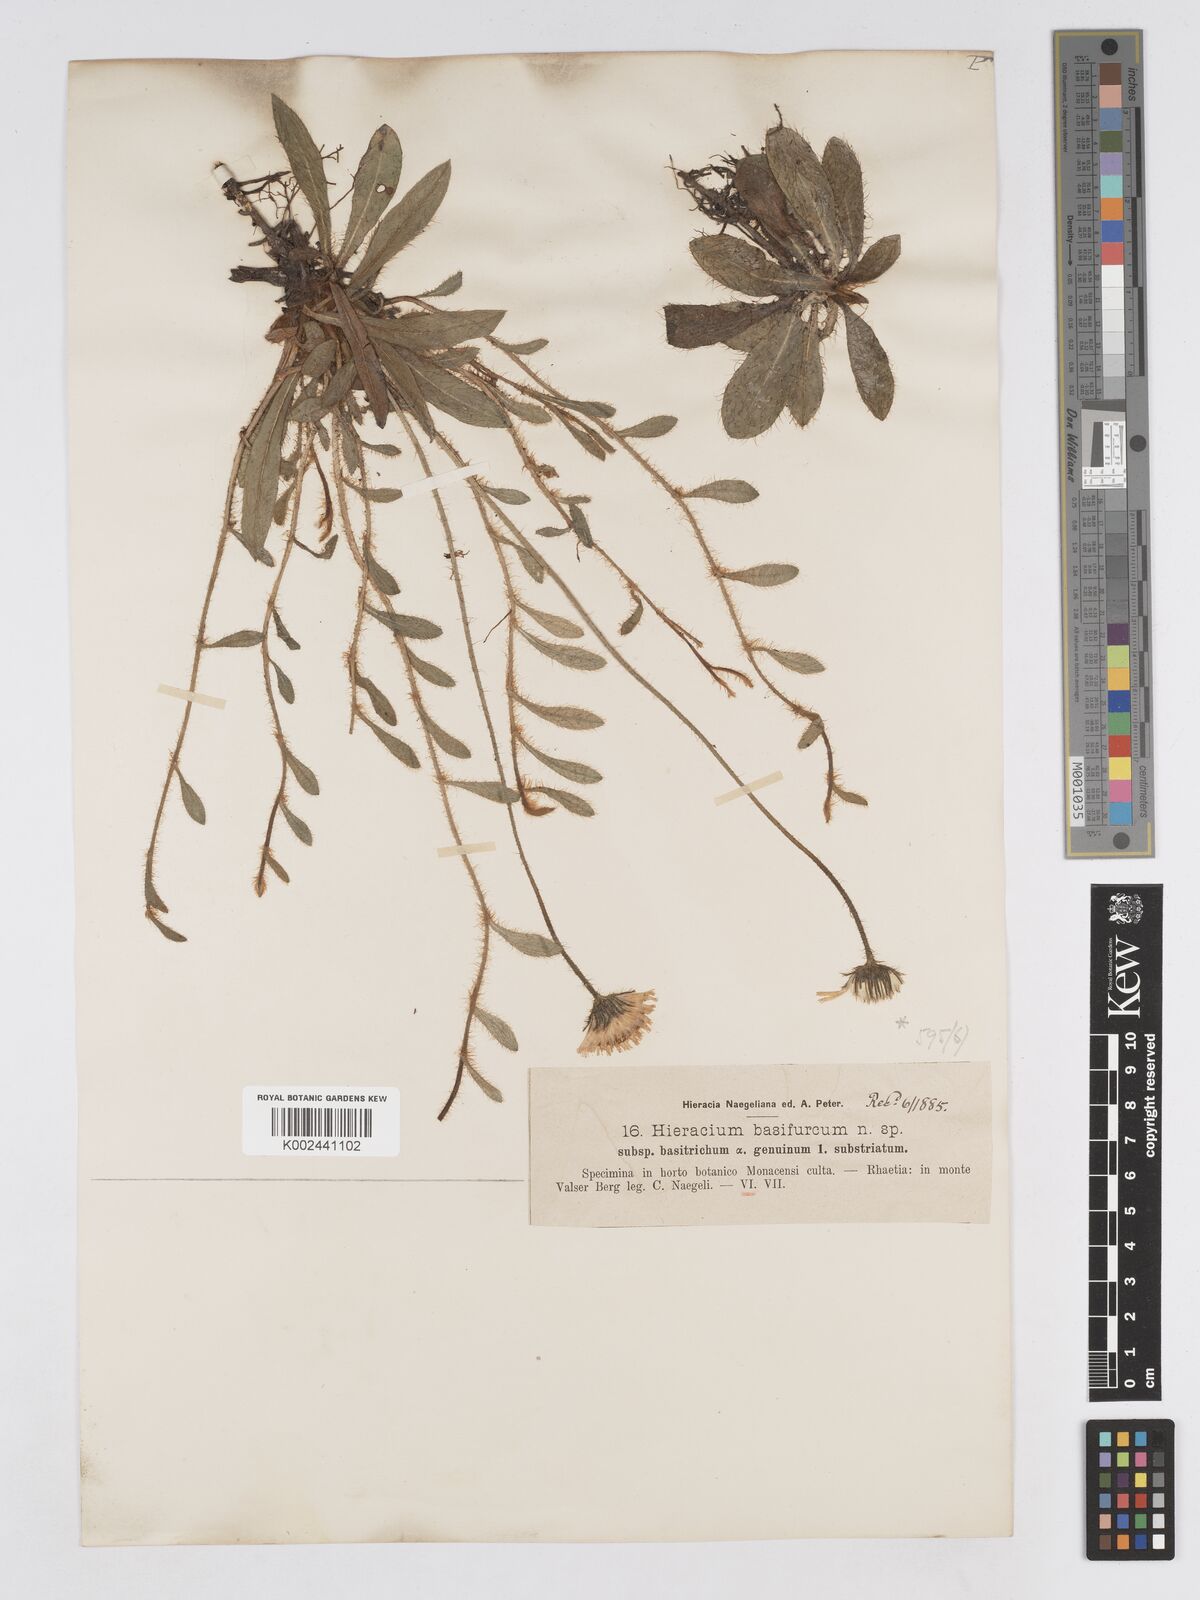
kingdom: Plantae
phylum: Tracheophyta
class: Magnoliopsida
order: Asterales
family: Asteraceae
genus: Pilosella
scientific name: Pilosella basifurca
